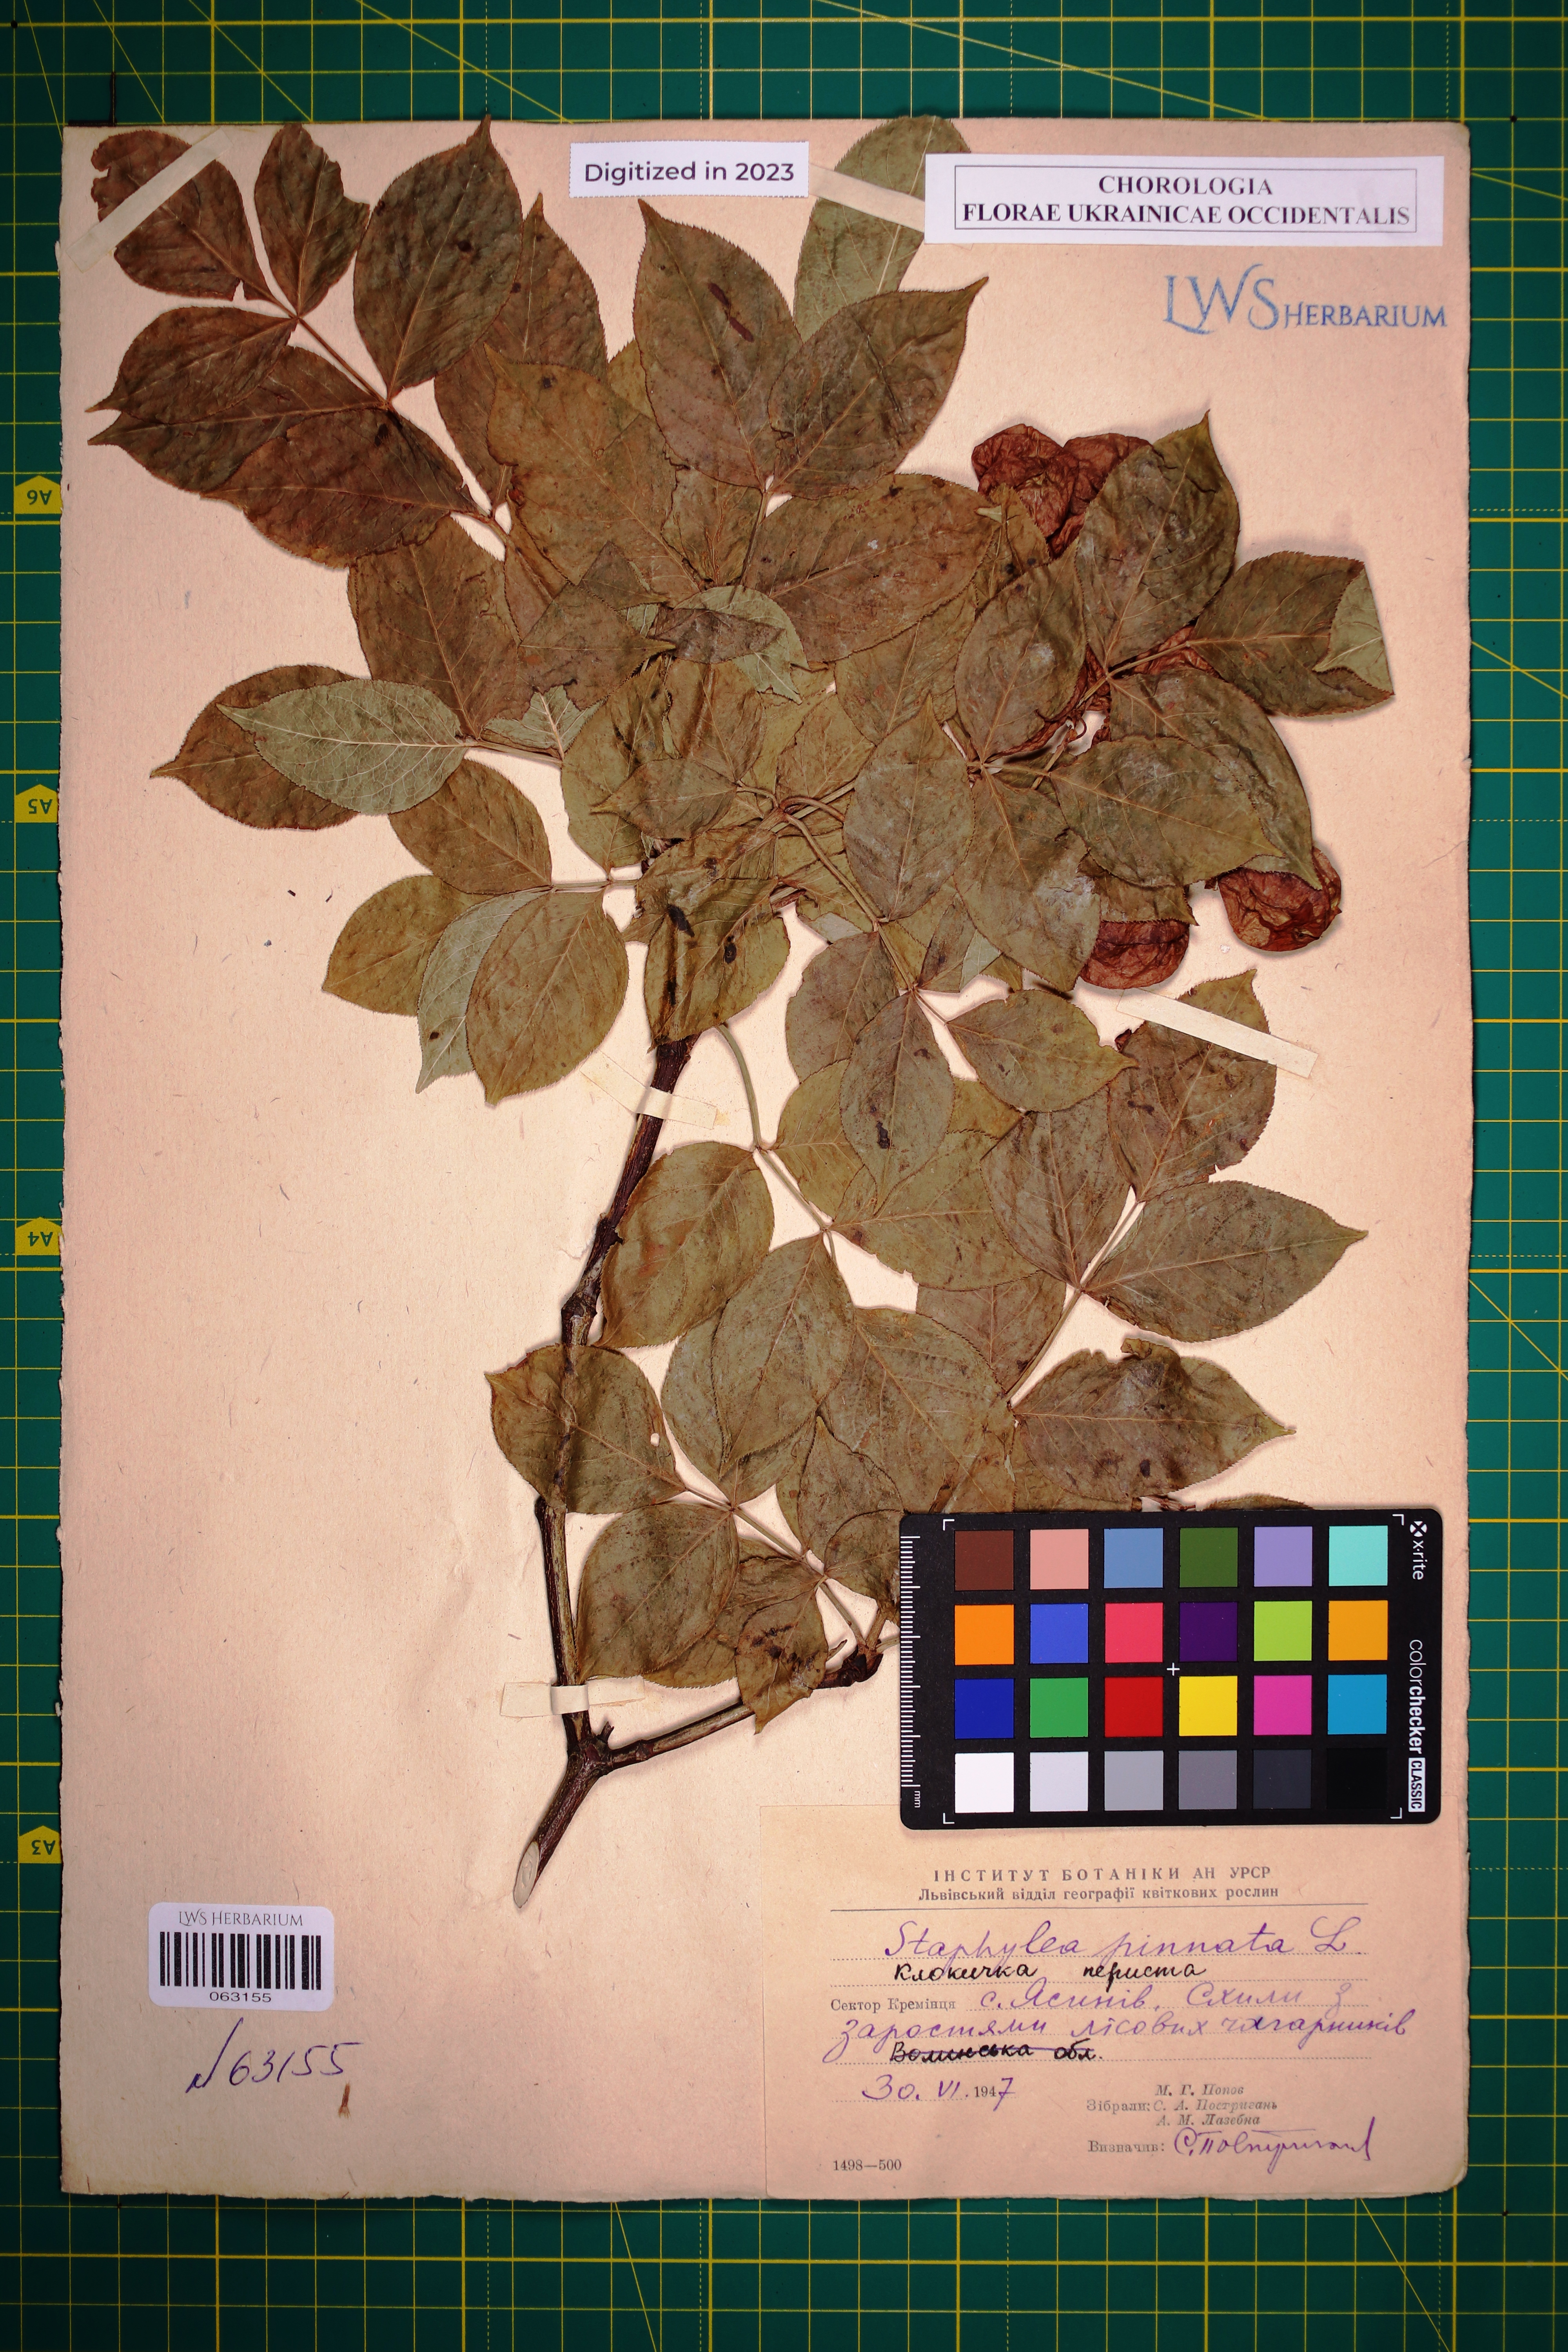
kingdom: Plantae
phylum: Tracheophyta
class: Magnoliopsida
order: Crossosomatales
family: Staphyleaceae
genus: Staphylea
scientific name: Staphylea pinnata
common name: Bladdernut
